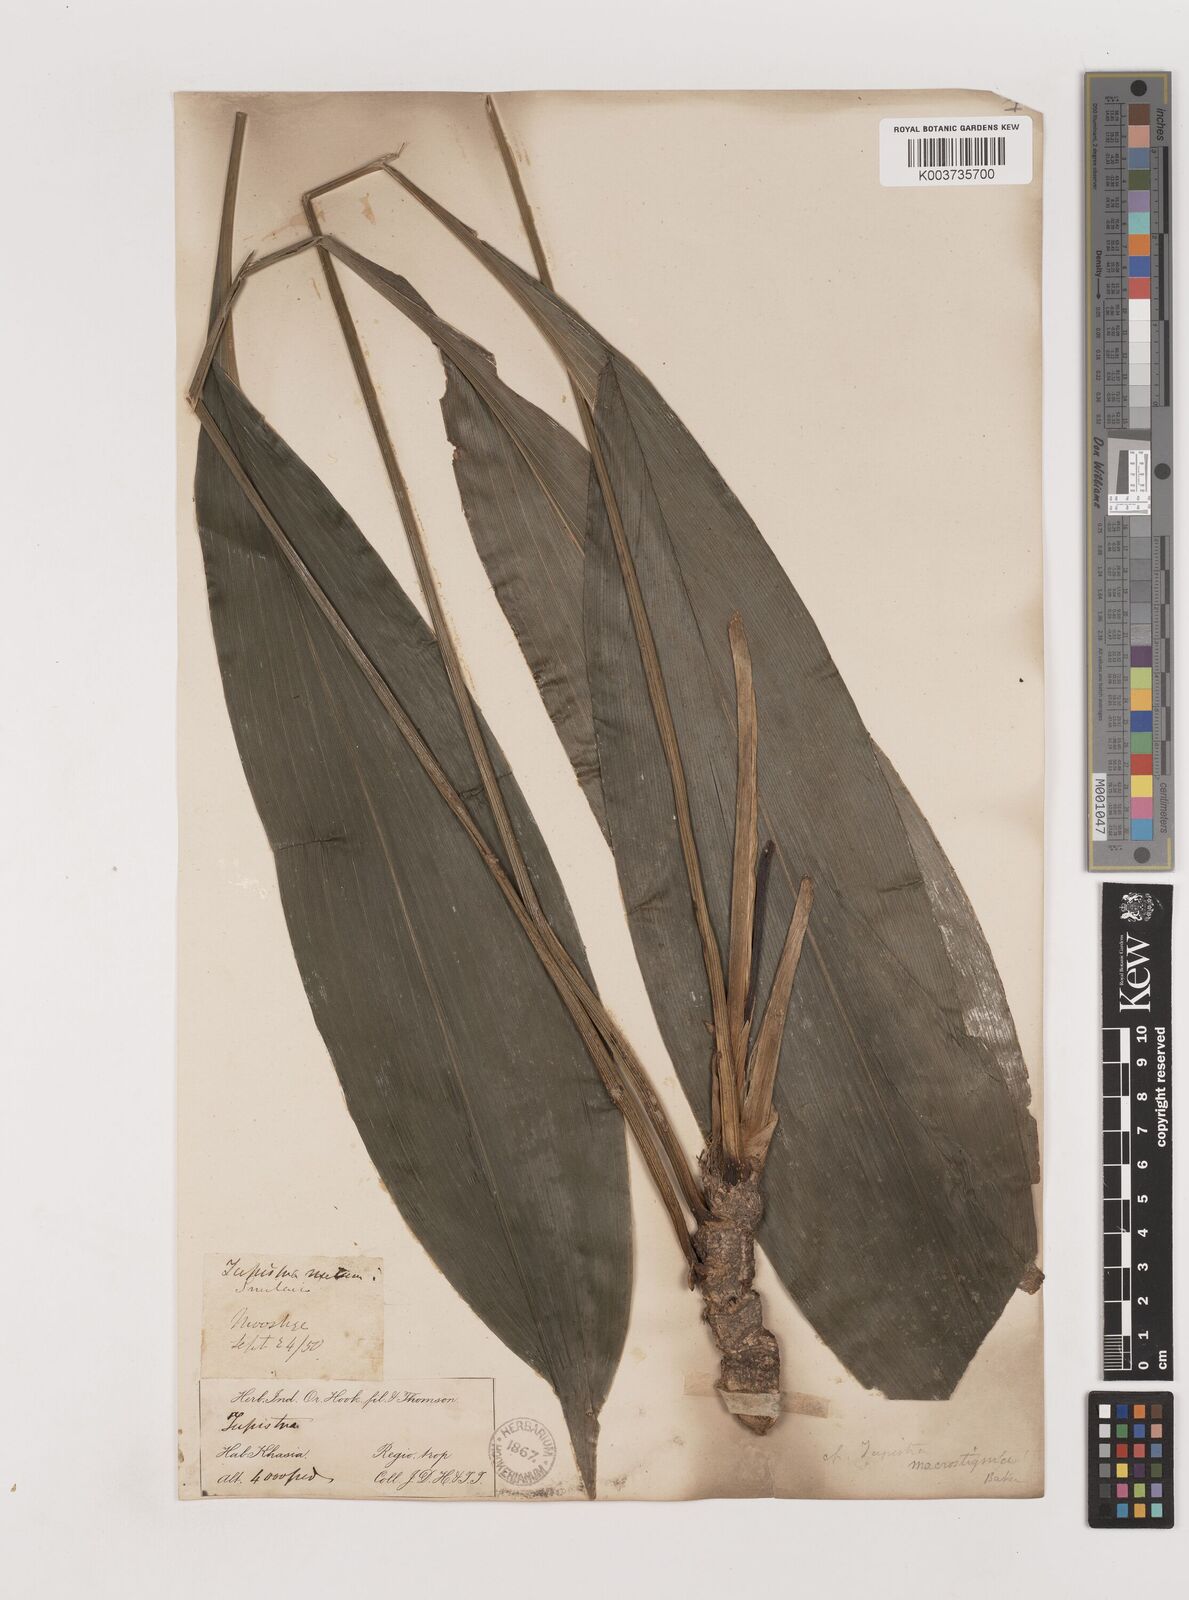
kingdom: Plantae
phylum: Tracheophyta
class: Liliopsida
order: Asparagales
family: Asparagaceae
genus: Tupistra
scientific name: Tupistra nutans
